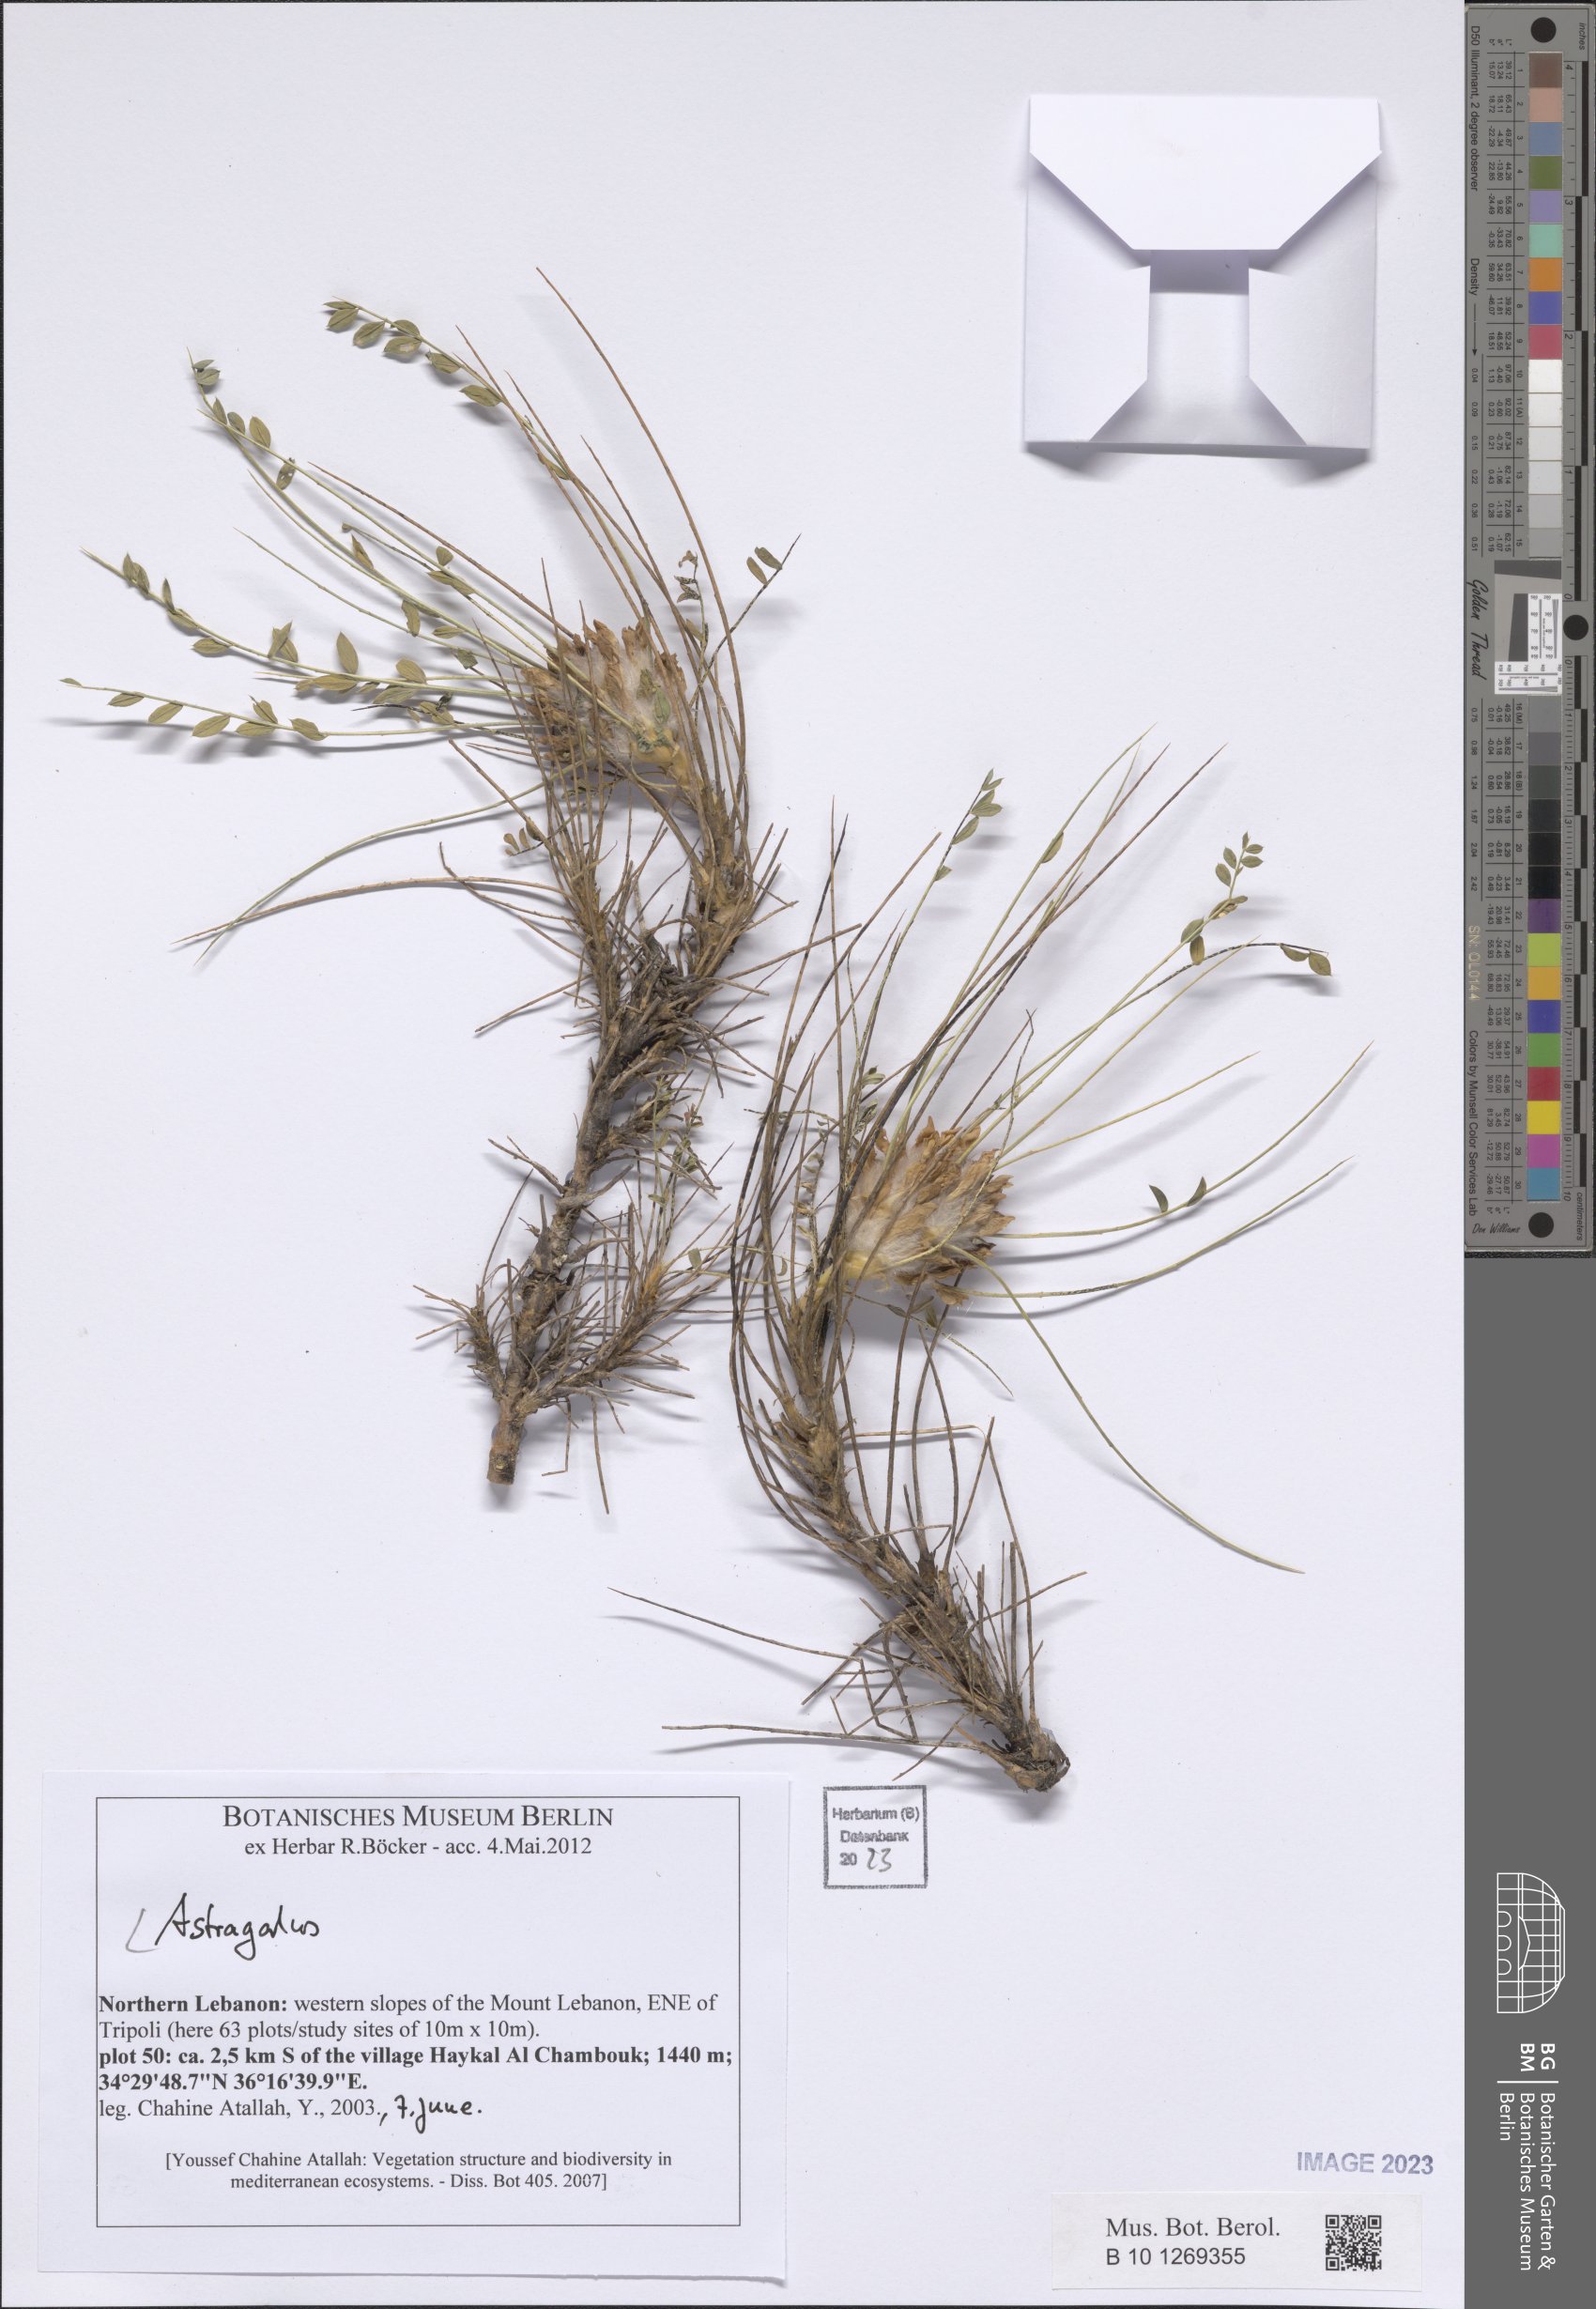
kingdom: Plantae
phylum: Tracheophyta
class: Magnoliopsida
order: Fabales
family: Fabaceae
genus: Astragalus
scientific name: Astragalus
